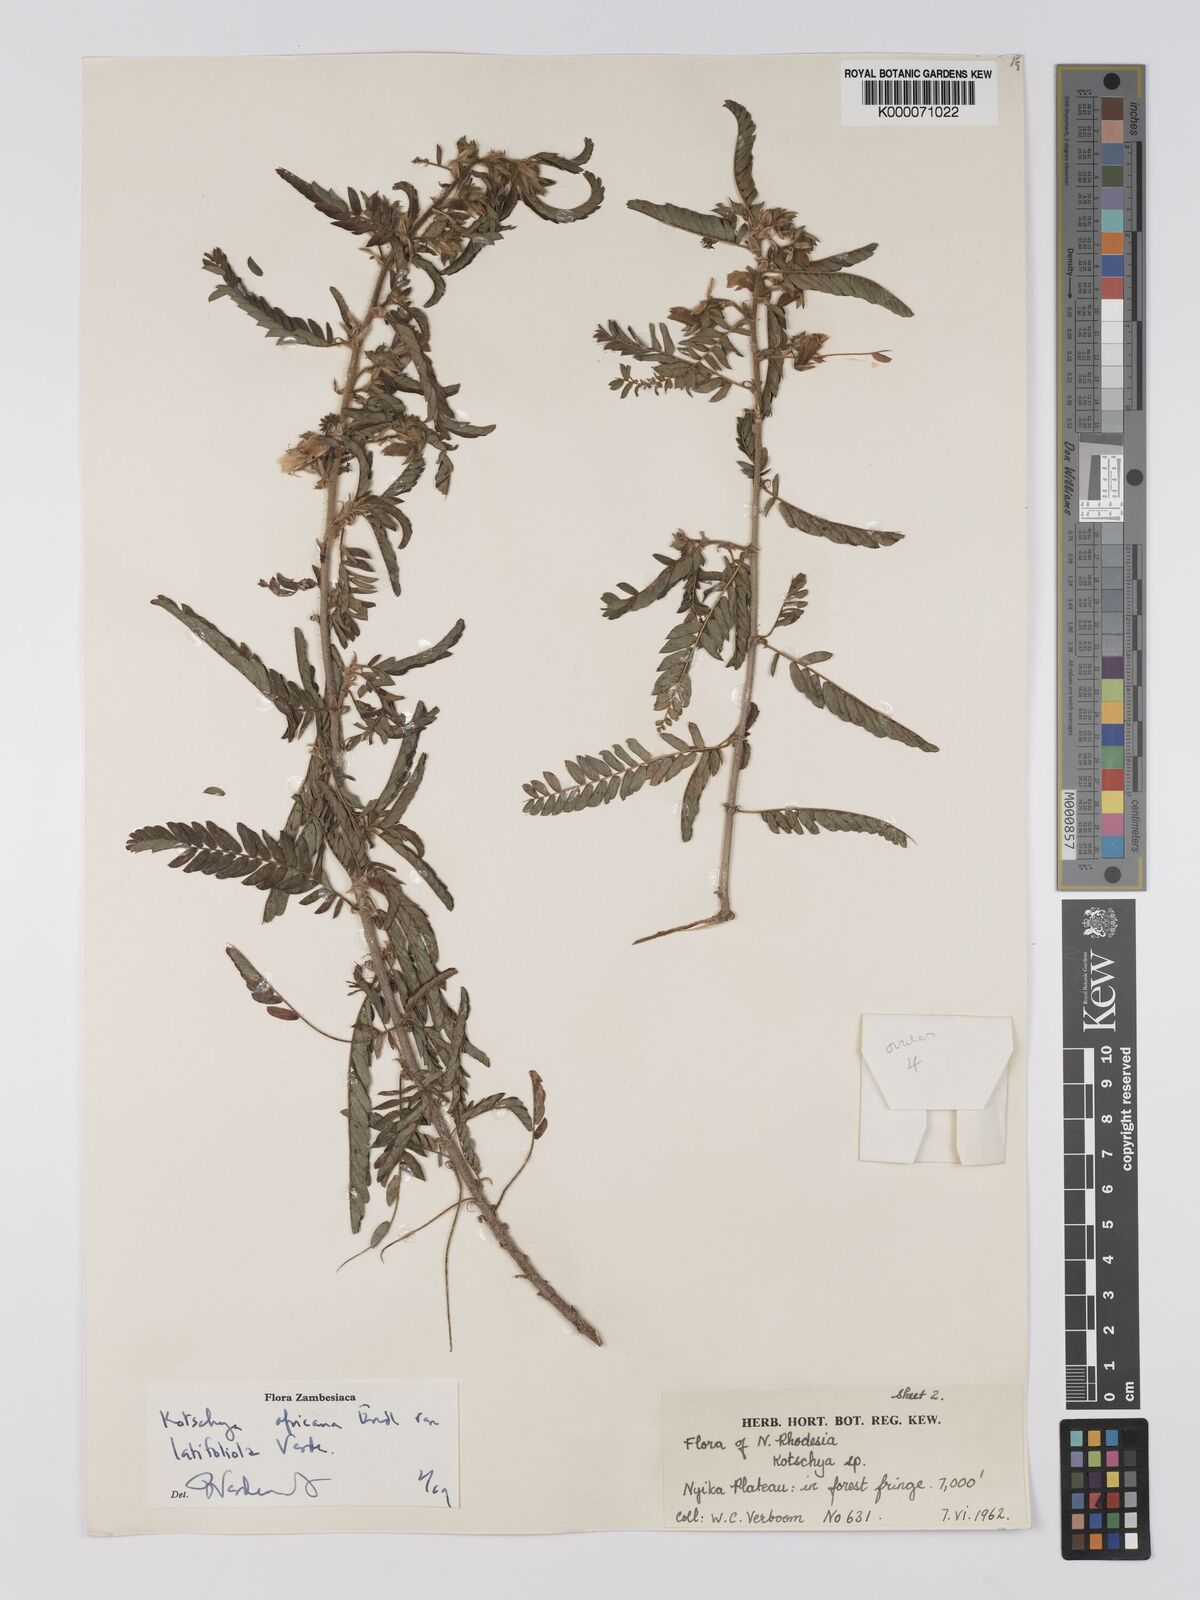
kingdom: Plantae
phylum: Tracheophyta
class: Magnoliopsida
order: Fabales
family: Fabaceae
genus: Kotschya
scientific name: Kotschya africana
